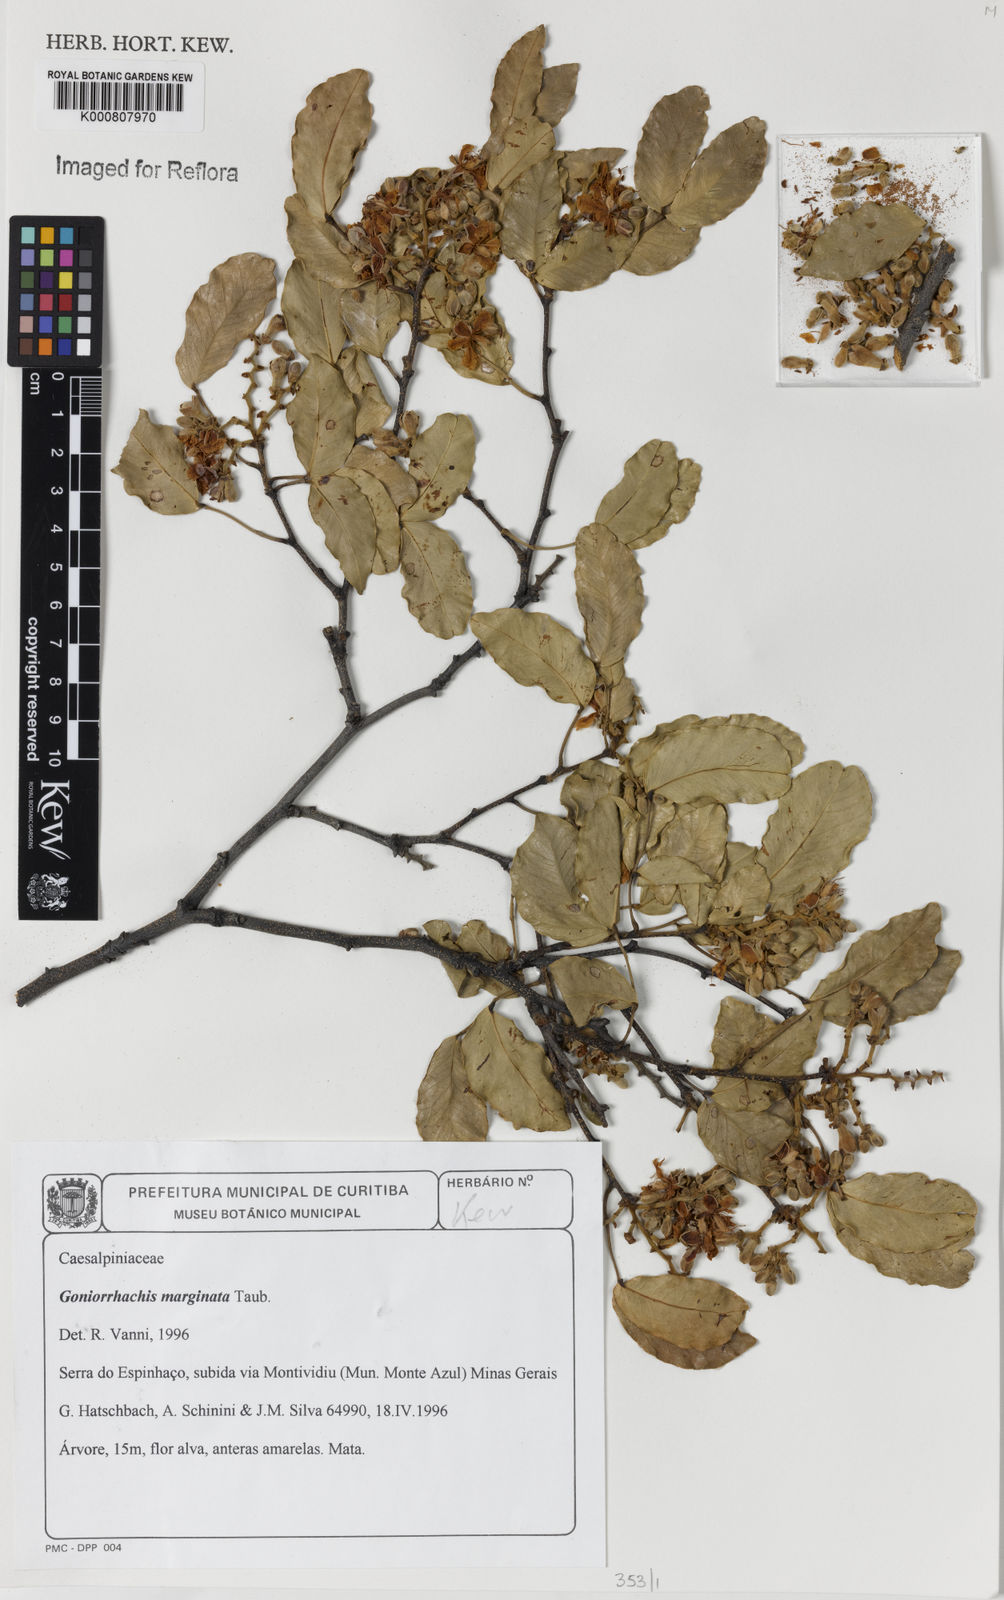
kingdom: Plantae
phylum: Tracheophyta
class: Magnoliopsida
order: Fabales
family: Fabaceae
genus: Goniorrhachis
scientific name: Goniorrhachis marginata
